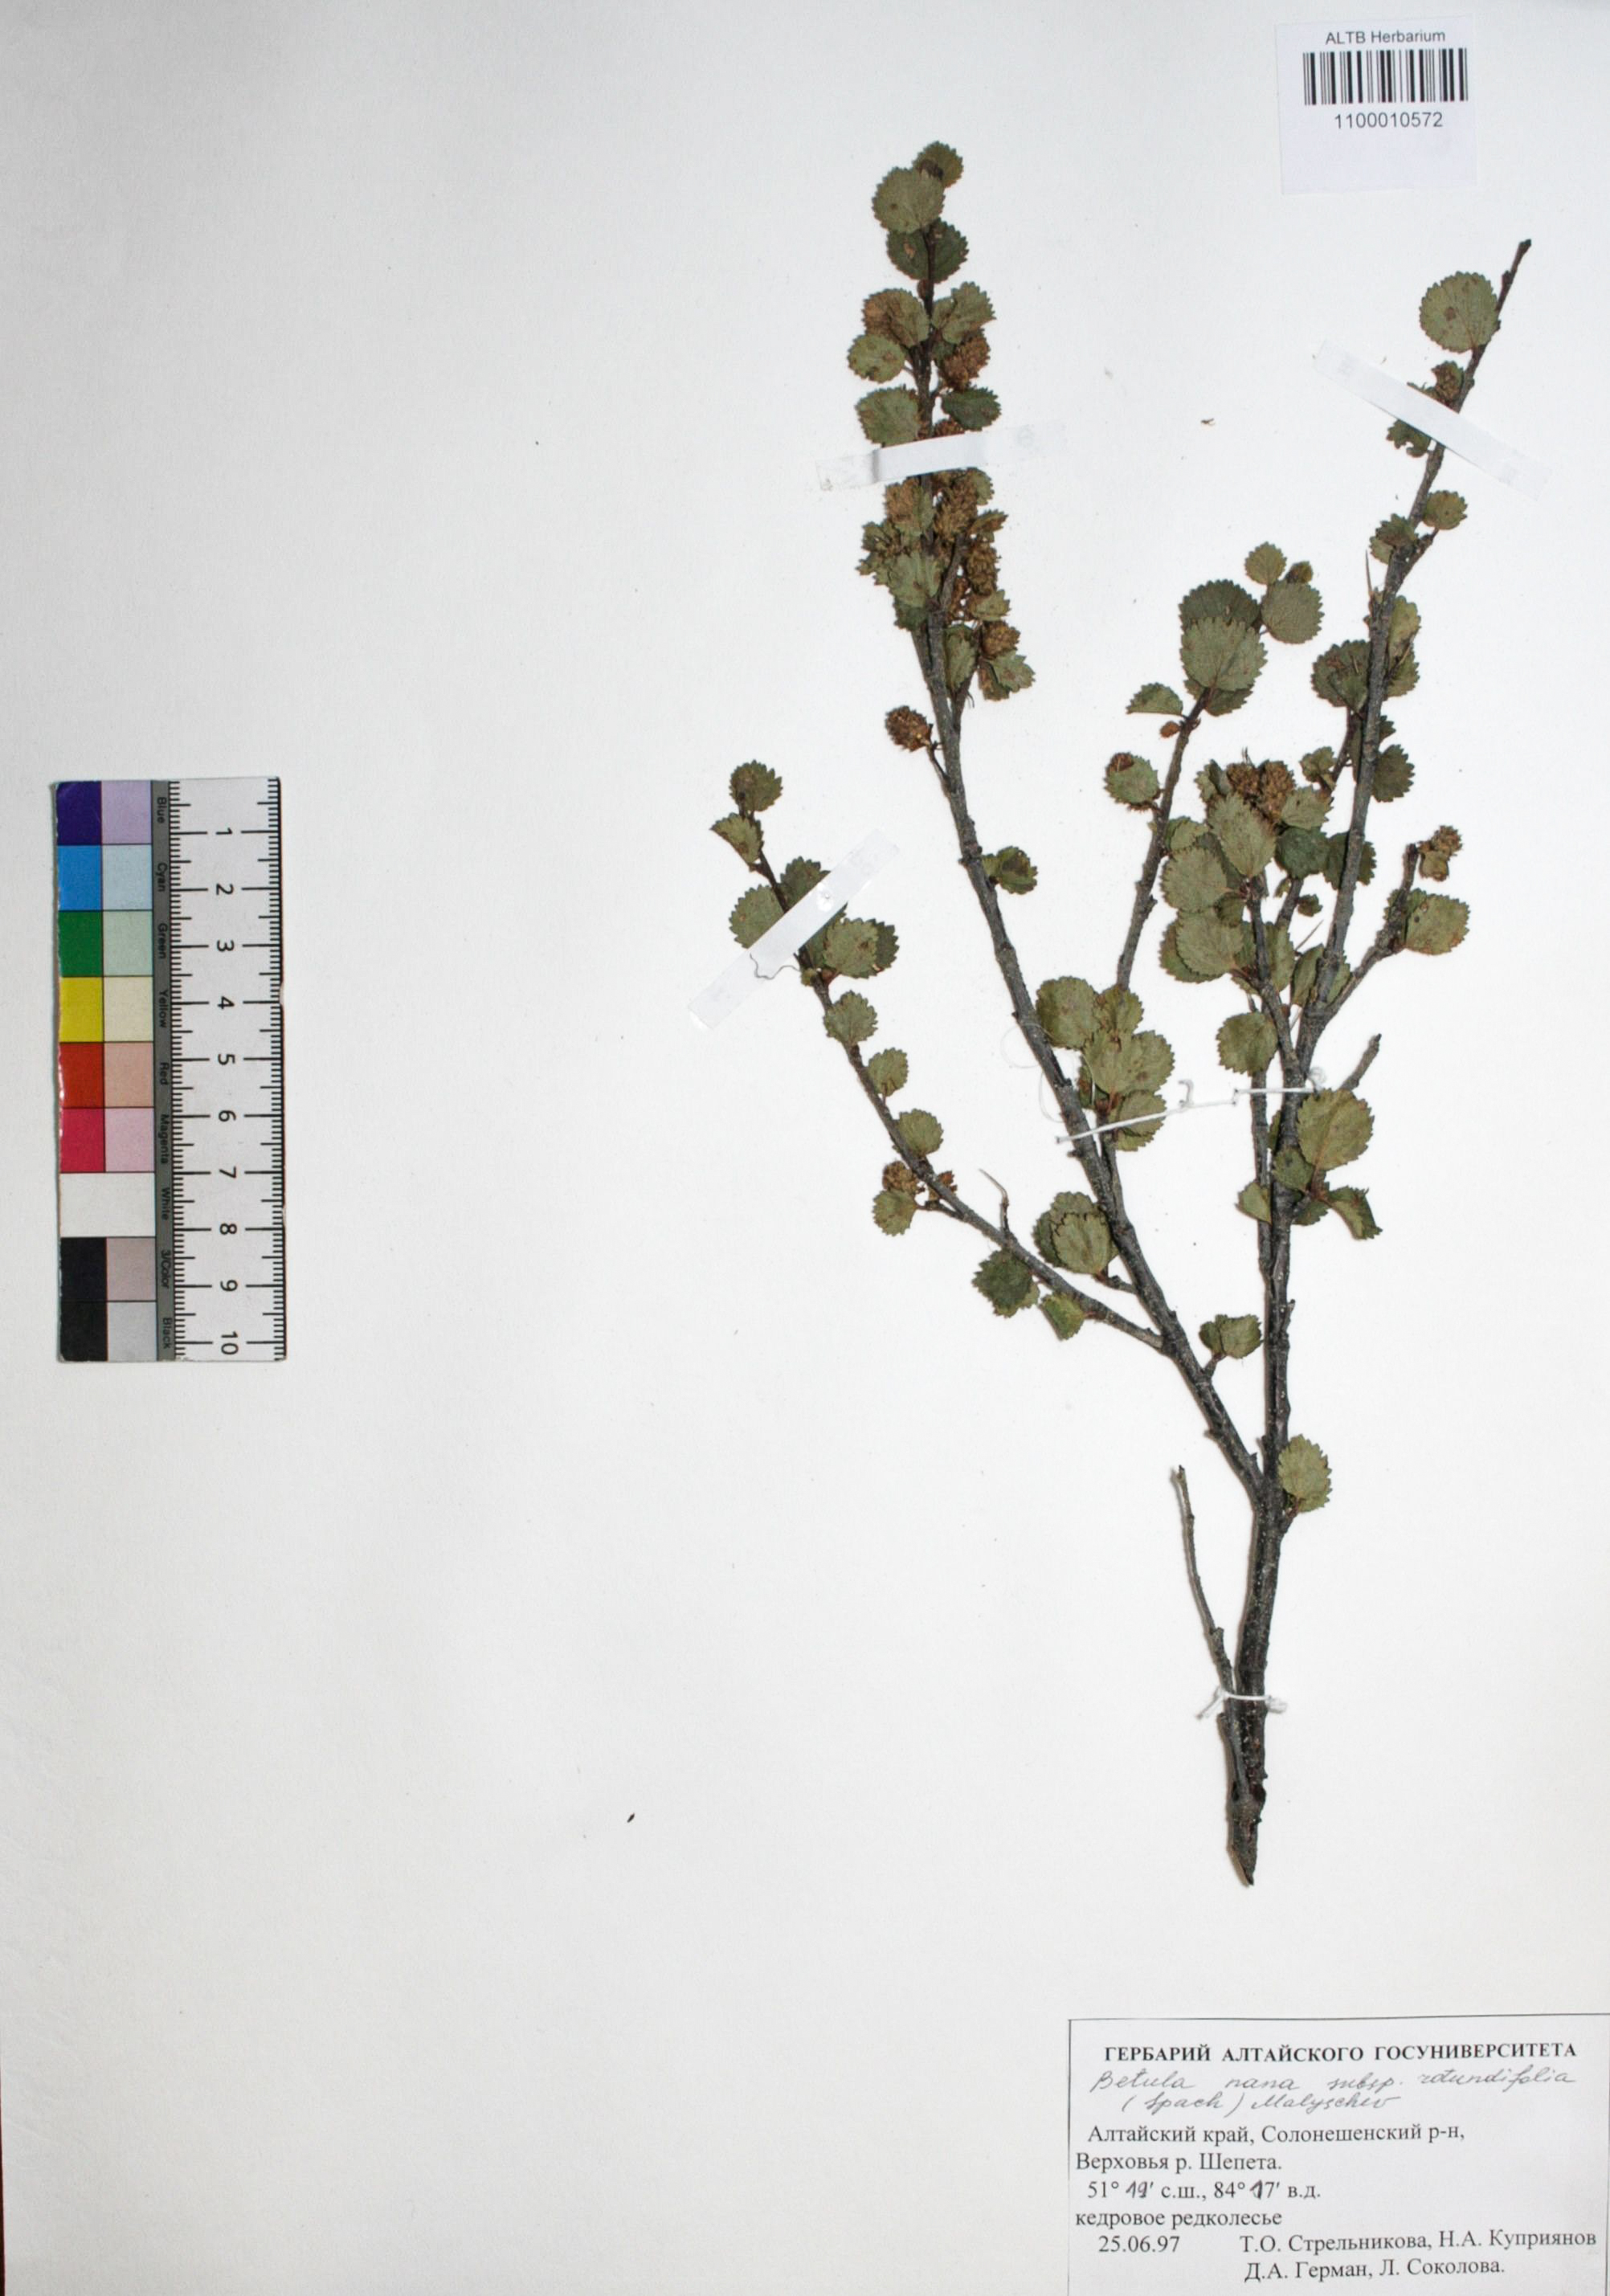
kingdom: Plantae
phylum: Tracheophyta
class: Magnoliopsida
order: Fagales
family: Betulaceae
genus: Betula
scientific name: Betula nana
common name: Arctic dwarf birch
